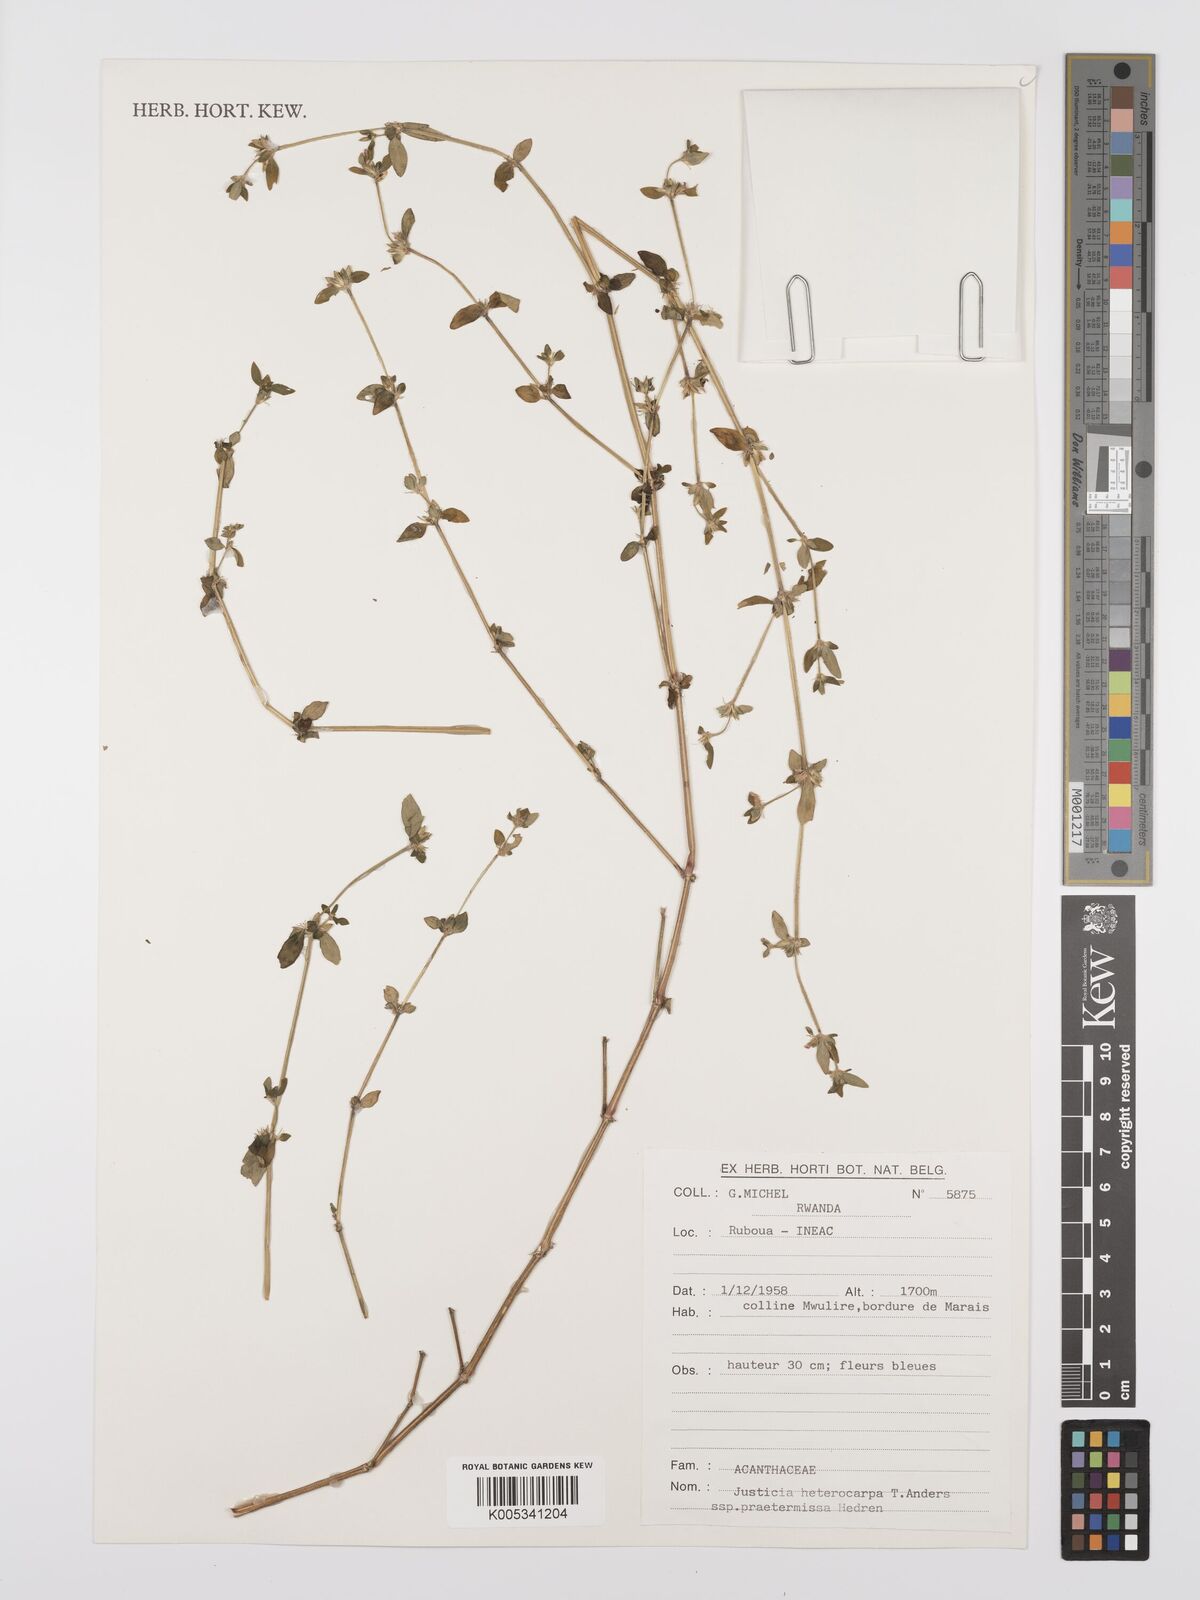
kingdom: Plantae
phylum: Tracheophyta
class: Magnoliopsida
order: Lamiales
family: Acanthaceae
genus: Justicia
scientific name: Justicia heterocarpa
